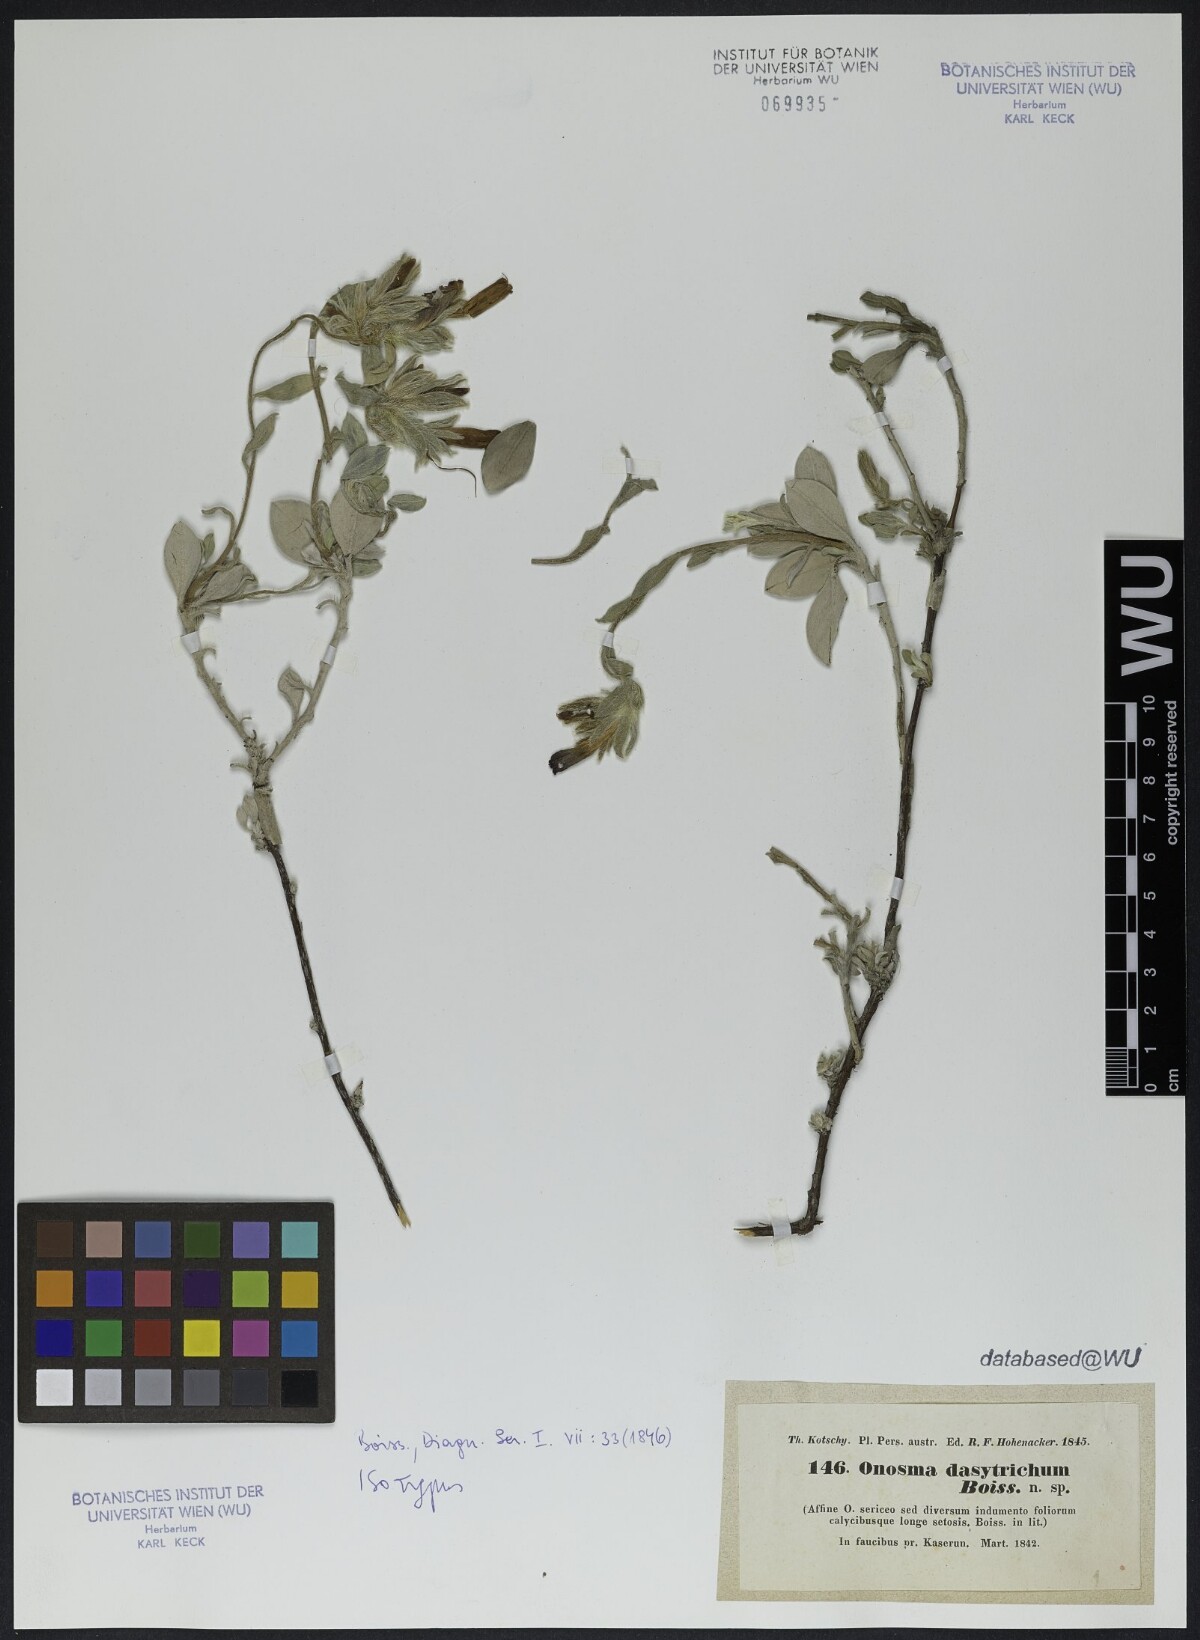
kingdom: Plantae
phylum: Tracheophyta
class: Magnoliopsida
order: Boraginales
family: Boraginaceae
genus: Onosma
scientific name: Onosma dasytricha
